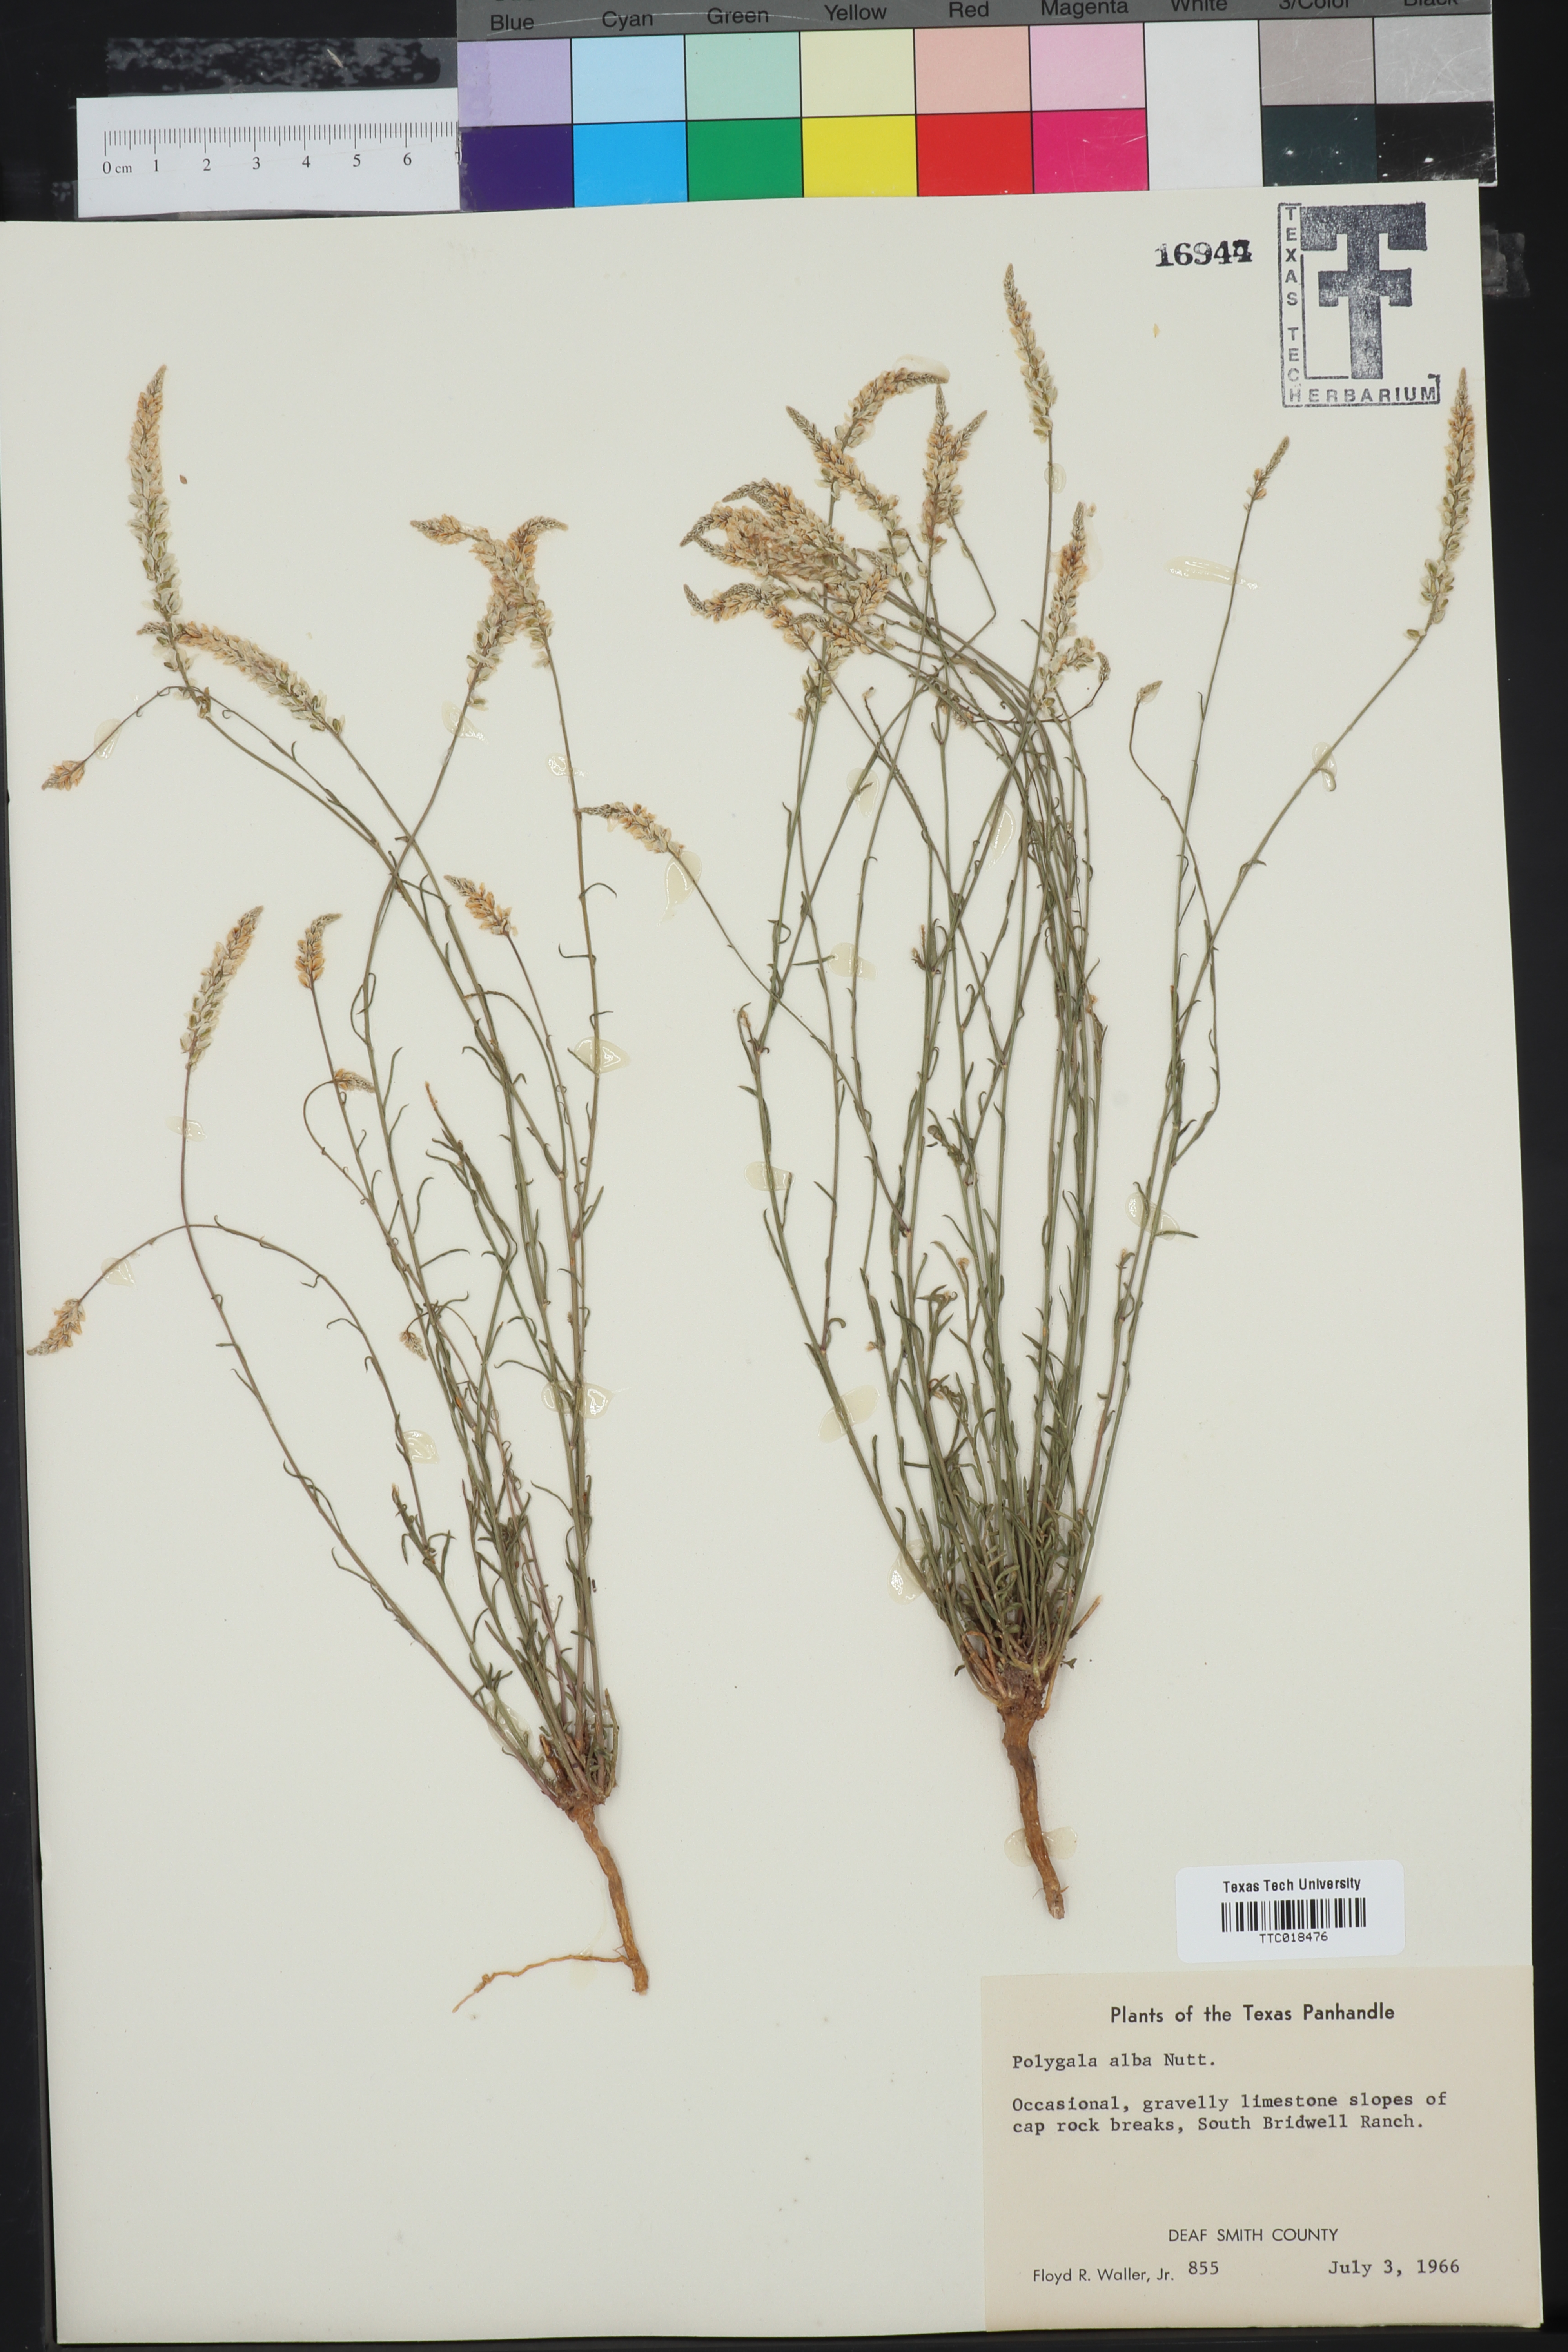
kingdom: Plantae
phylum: Tracheophyta
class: Magnoliopsida
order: Fabales
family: Polygalaceae
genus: Polygala
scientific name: Polygala alba
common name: White milkwort
